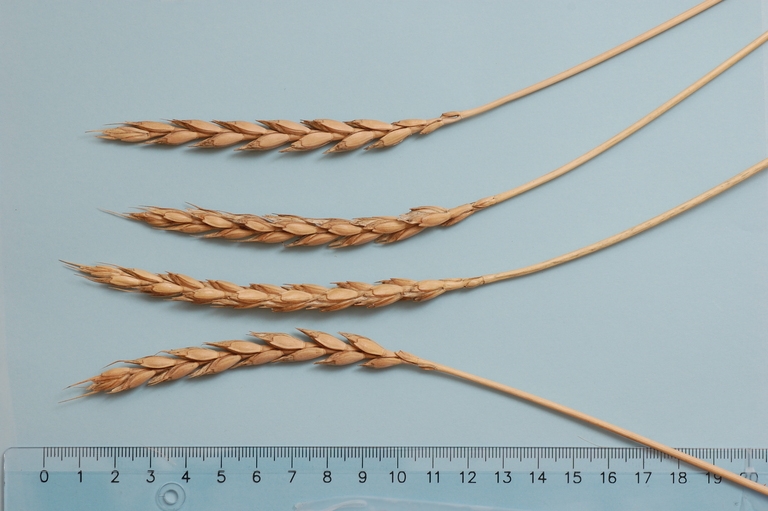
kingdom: Plantae
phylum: Tracheophyta
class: Liliopsida
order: Poales
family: Poaceae
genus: Triticum
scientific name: Triticum aestivum
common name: Common wheat
